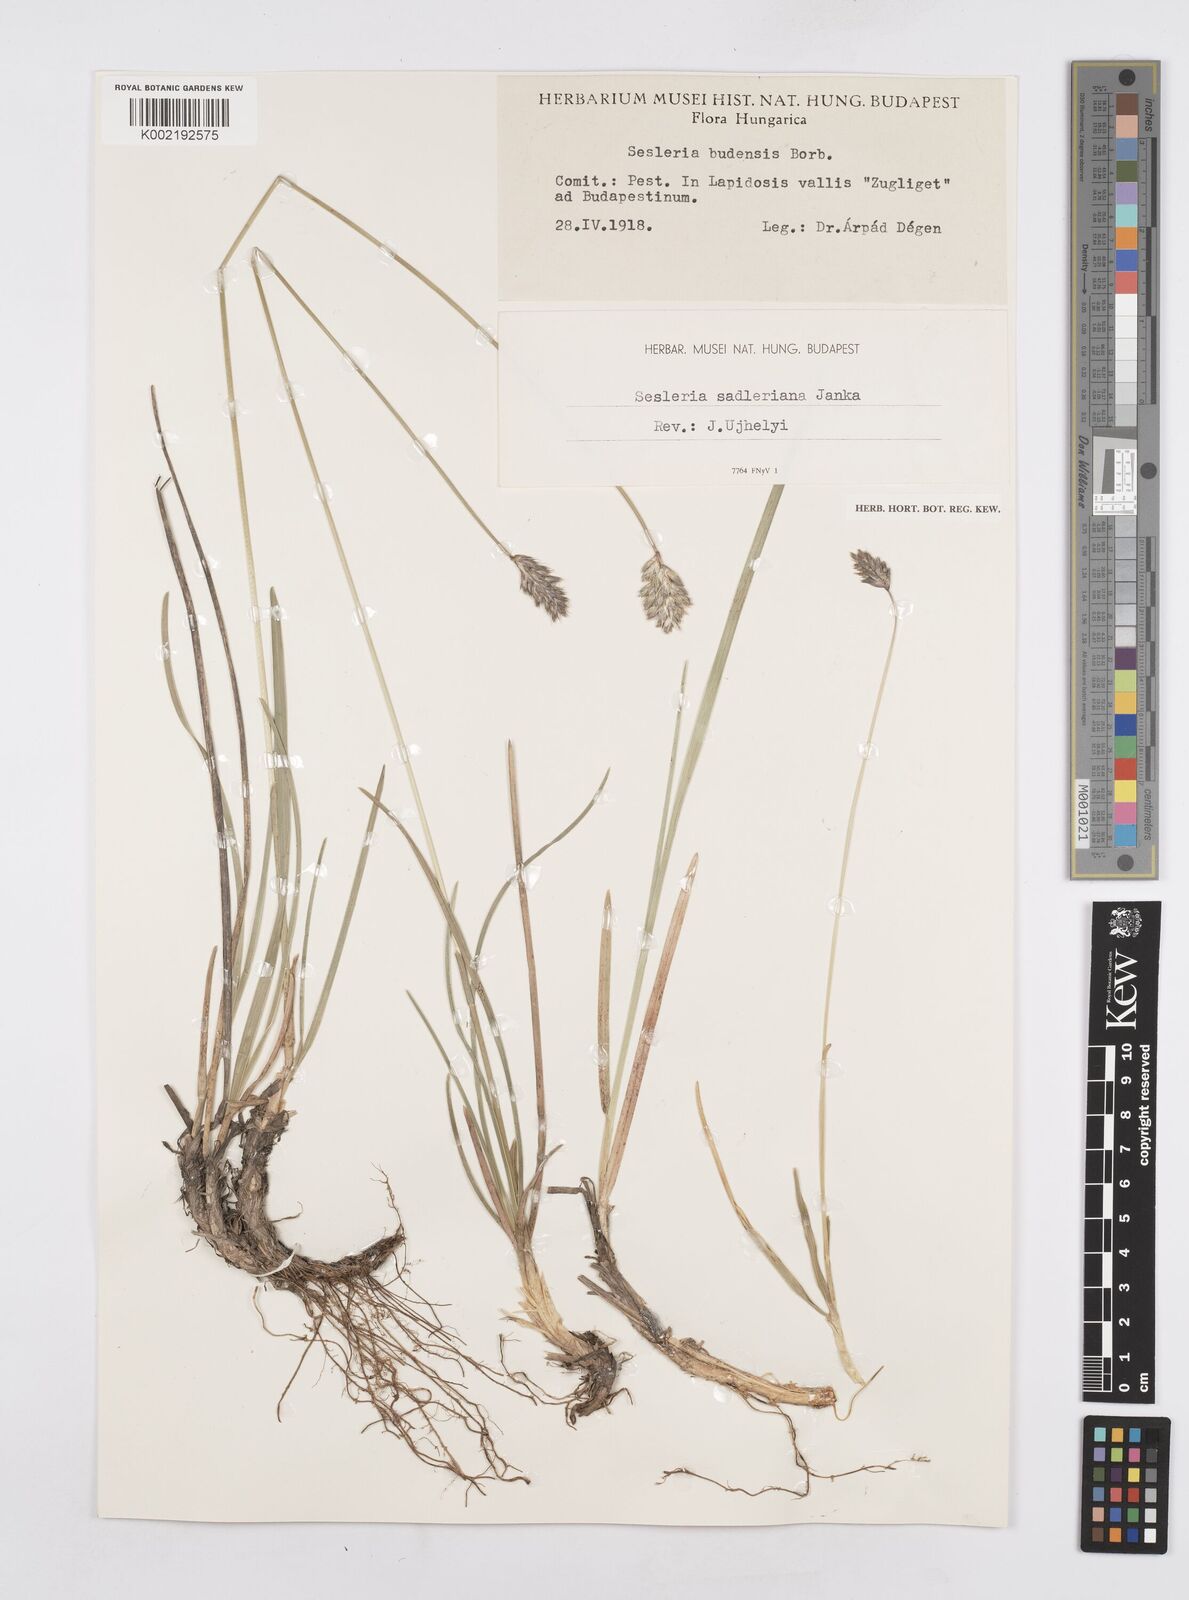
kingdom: Plantae
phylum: Tracheophyta
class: Liliopsida
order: Poales
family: Poaceae
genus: Sesleria
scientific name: Sesleria sadleriana
